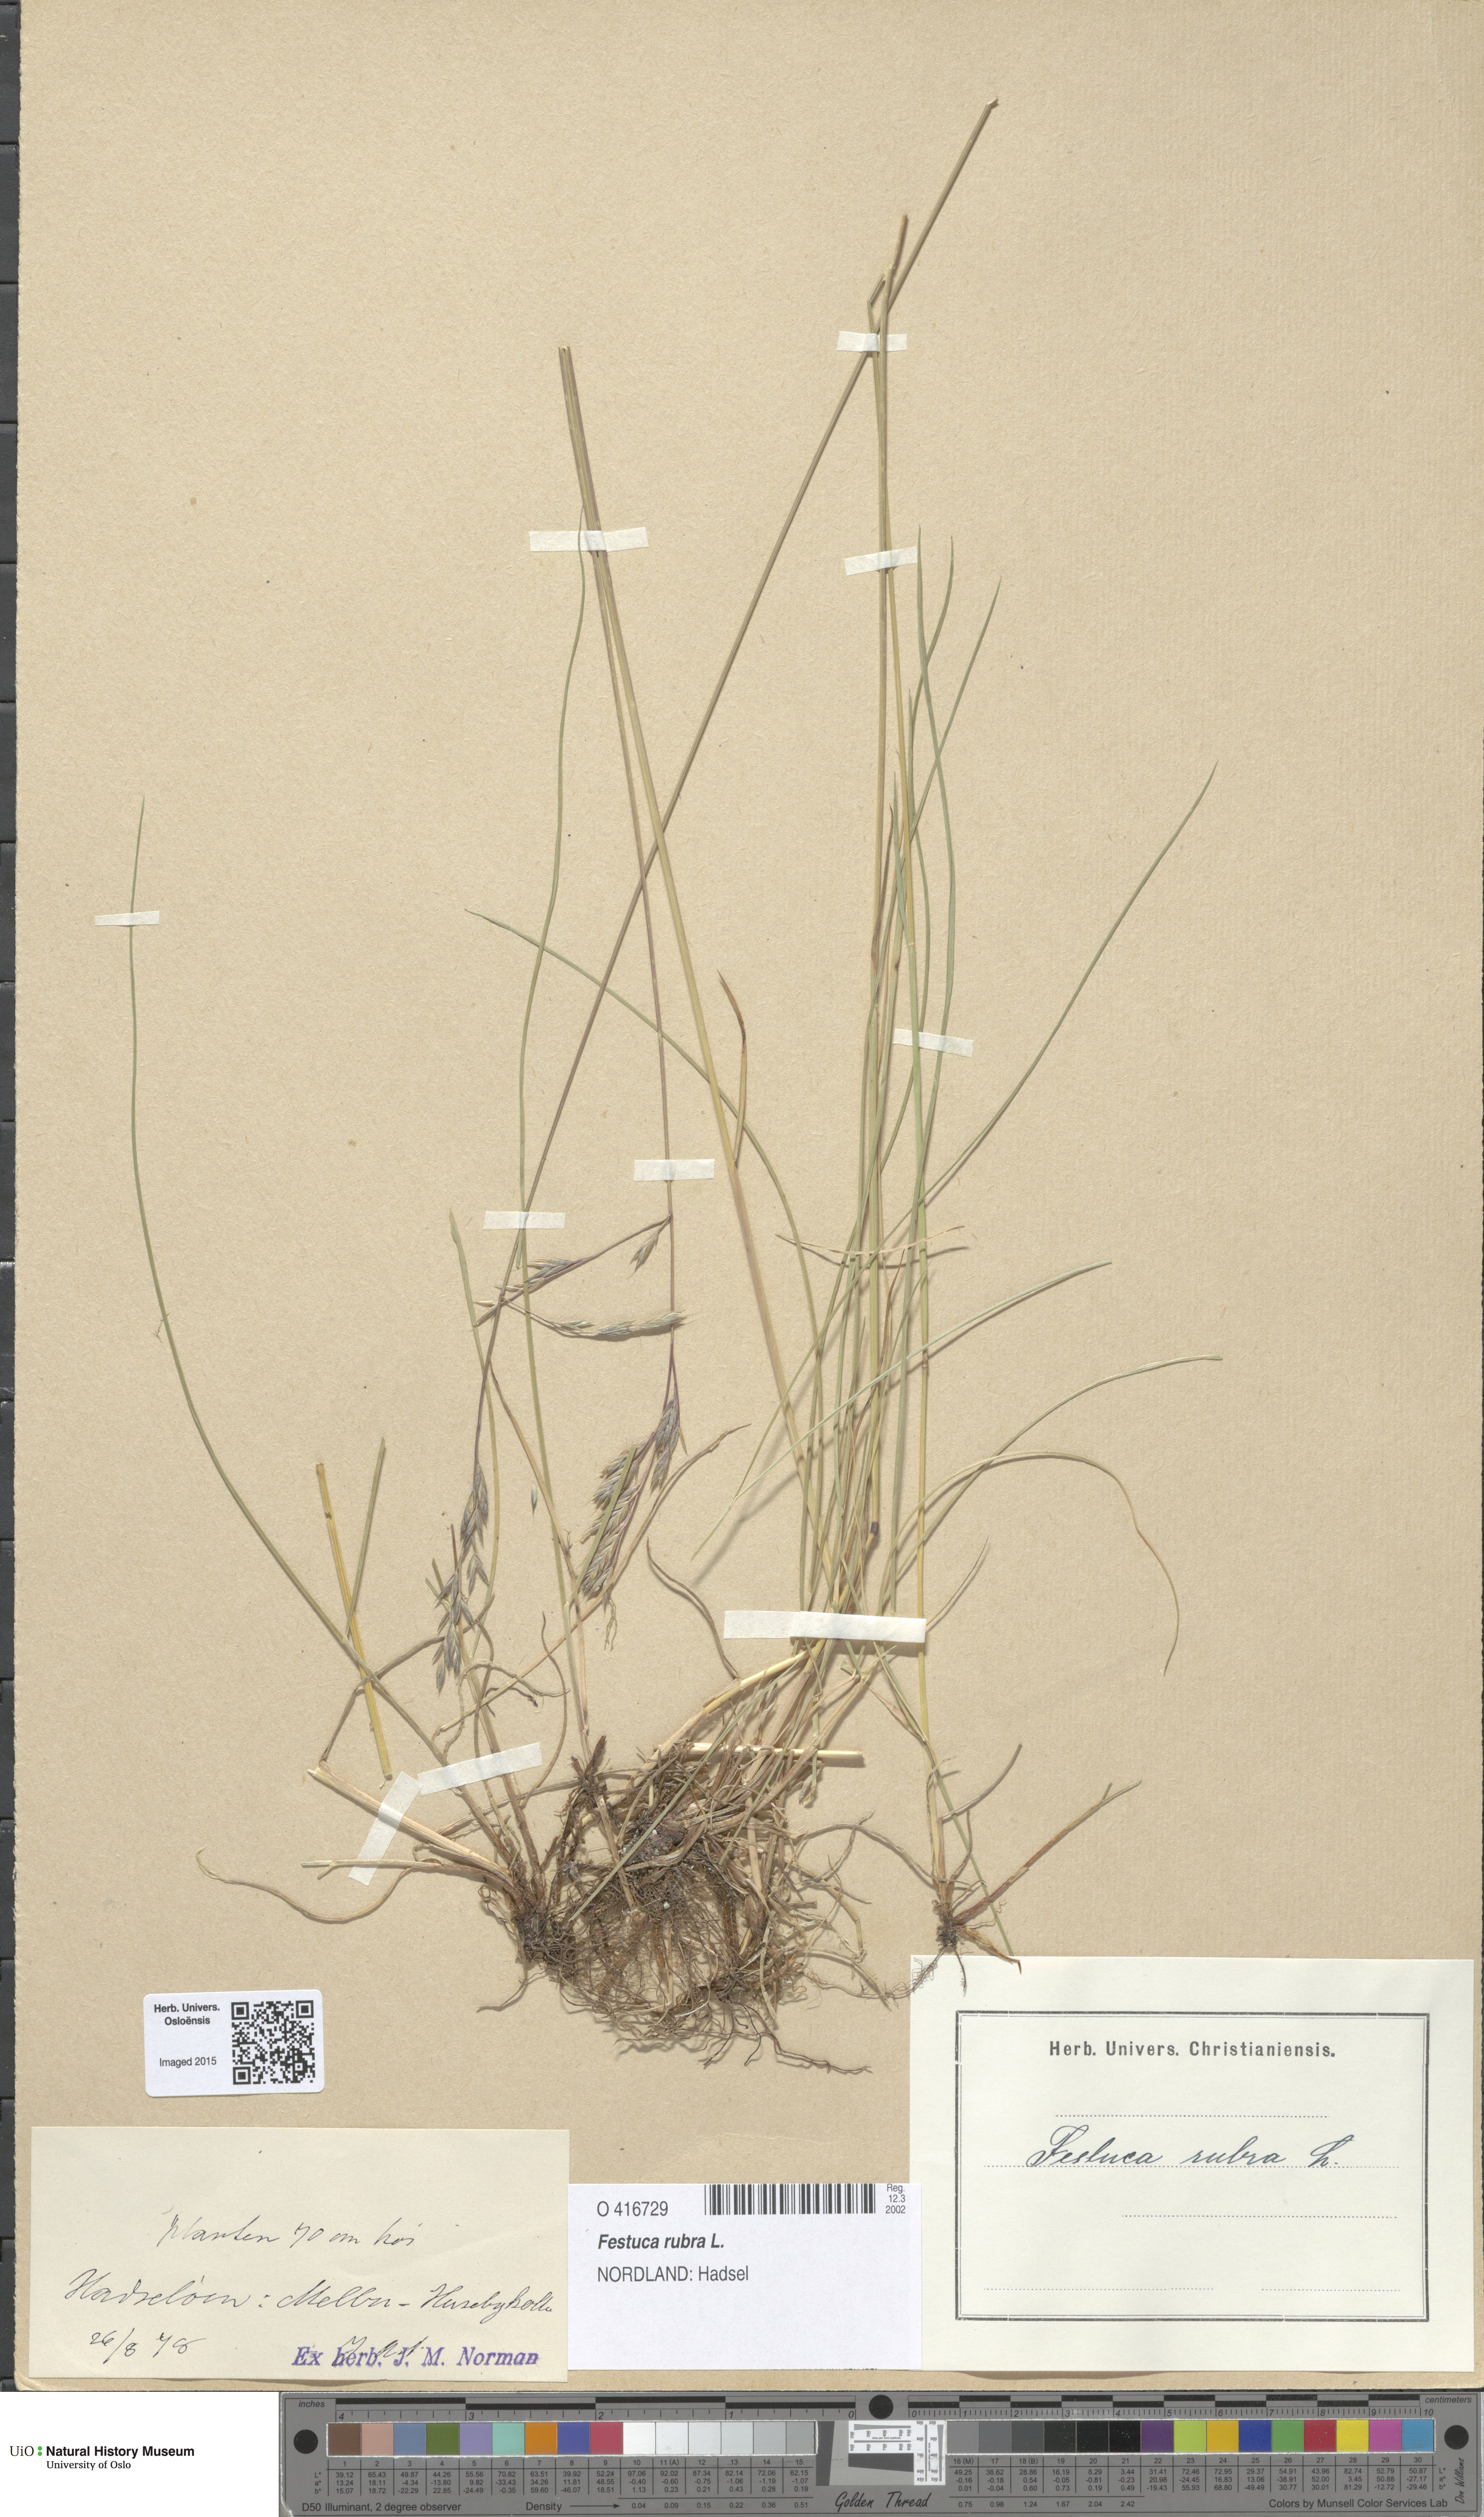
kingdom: Plantae
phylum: Tracheophyta
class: Liliopsida
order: Poales
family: Poaceae
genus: Festuca
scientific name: Festuca rubra
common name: Red fescue
